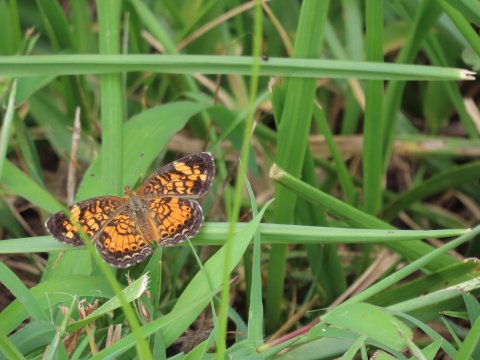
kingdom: Animalia
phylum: Arthropoda
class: Insecta
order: Lepidoptera
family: Nymphalidae
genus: Phyciodes
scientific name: Phyciodes tharos
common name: Pearl Crescent
